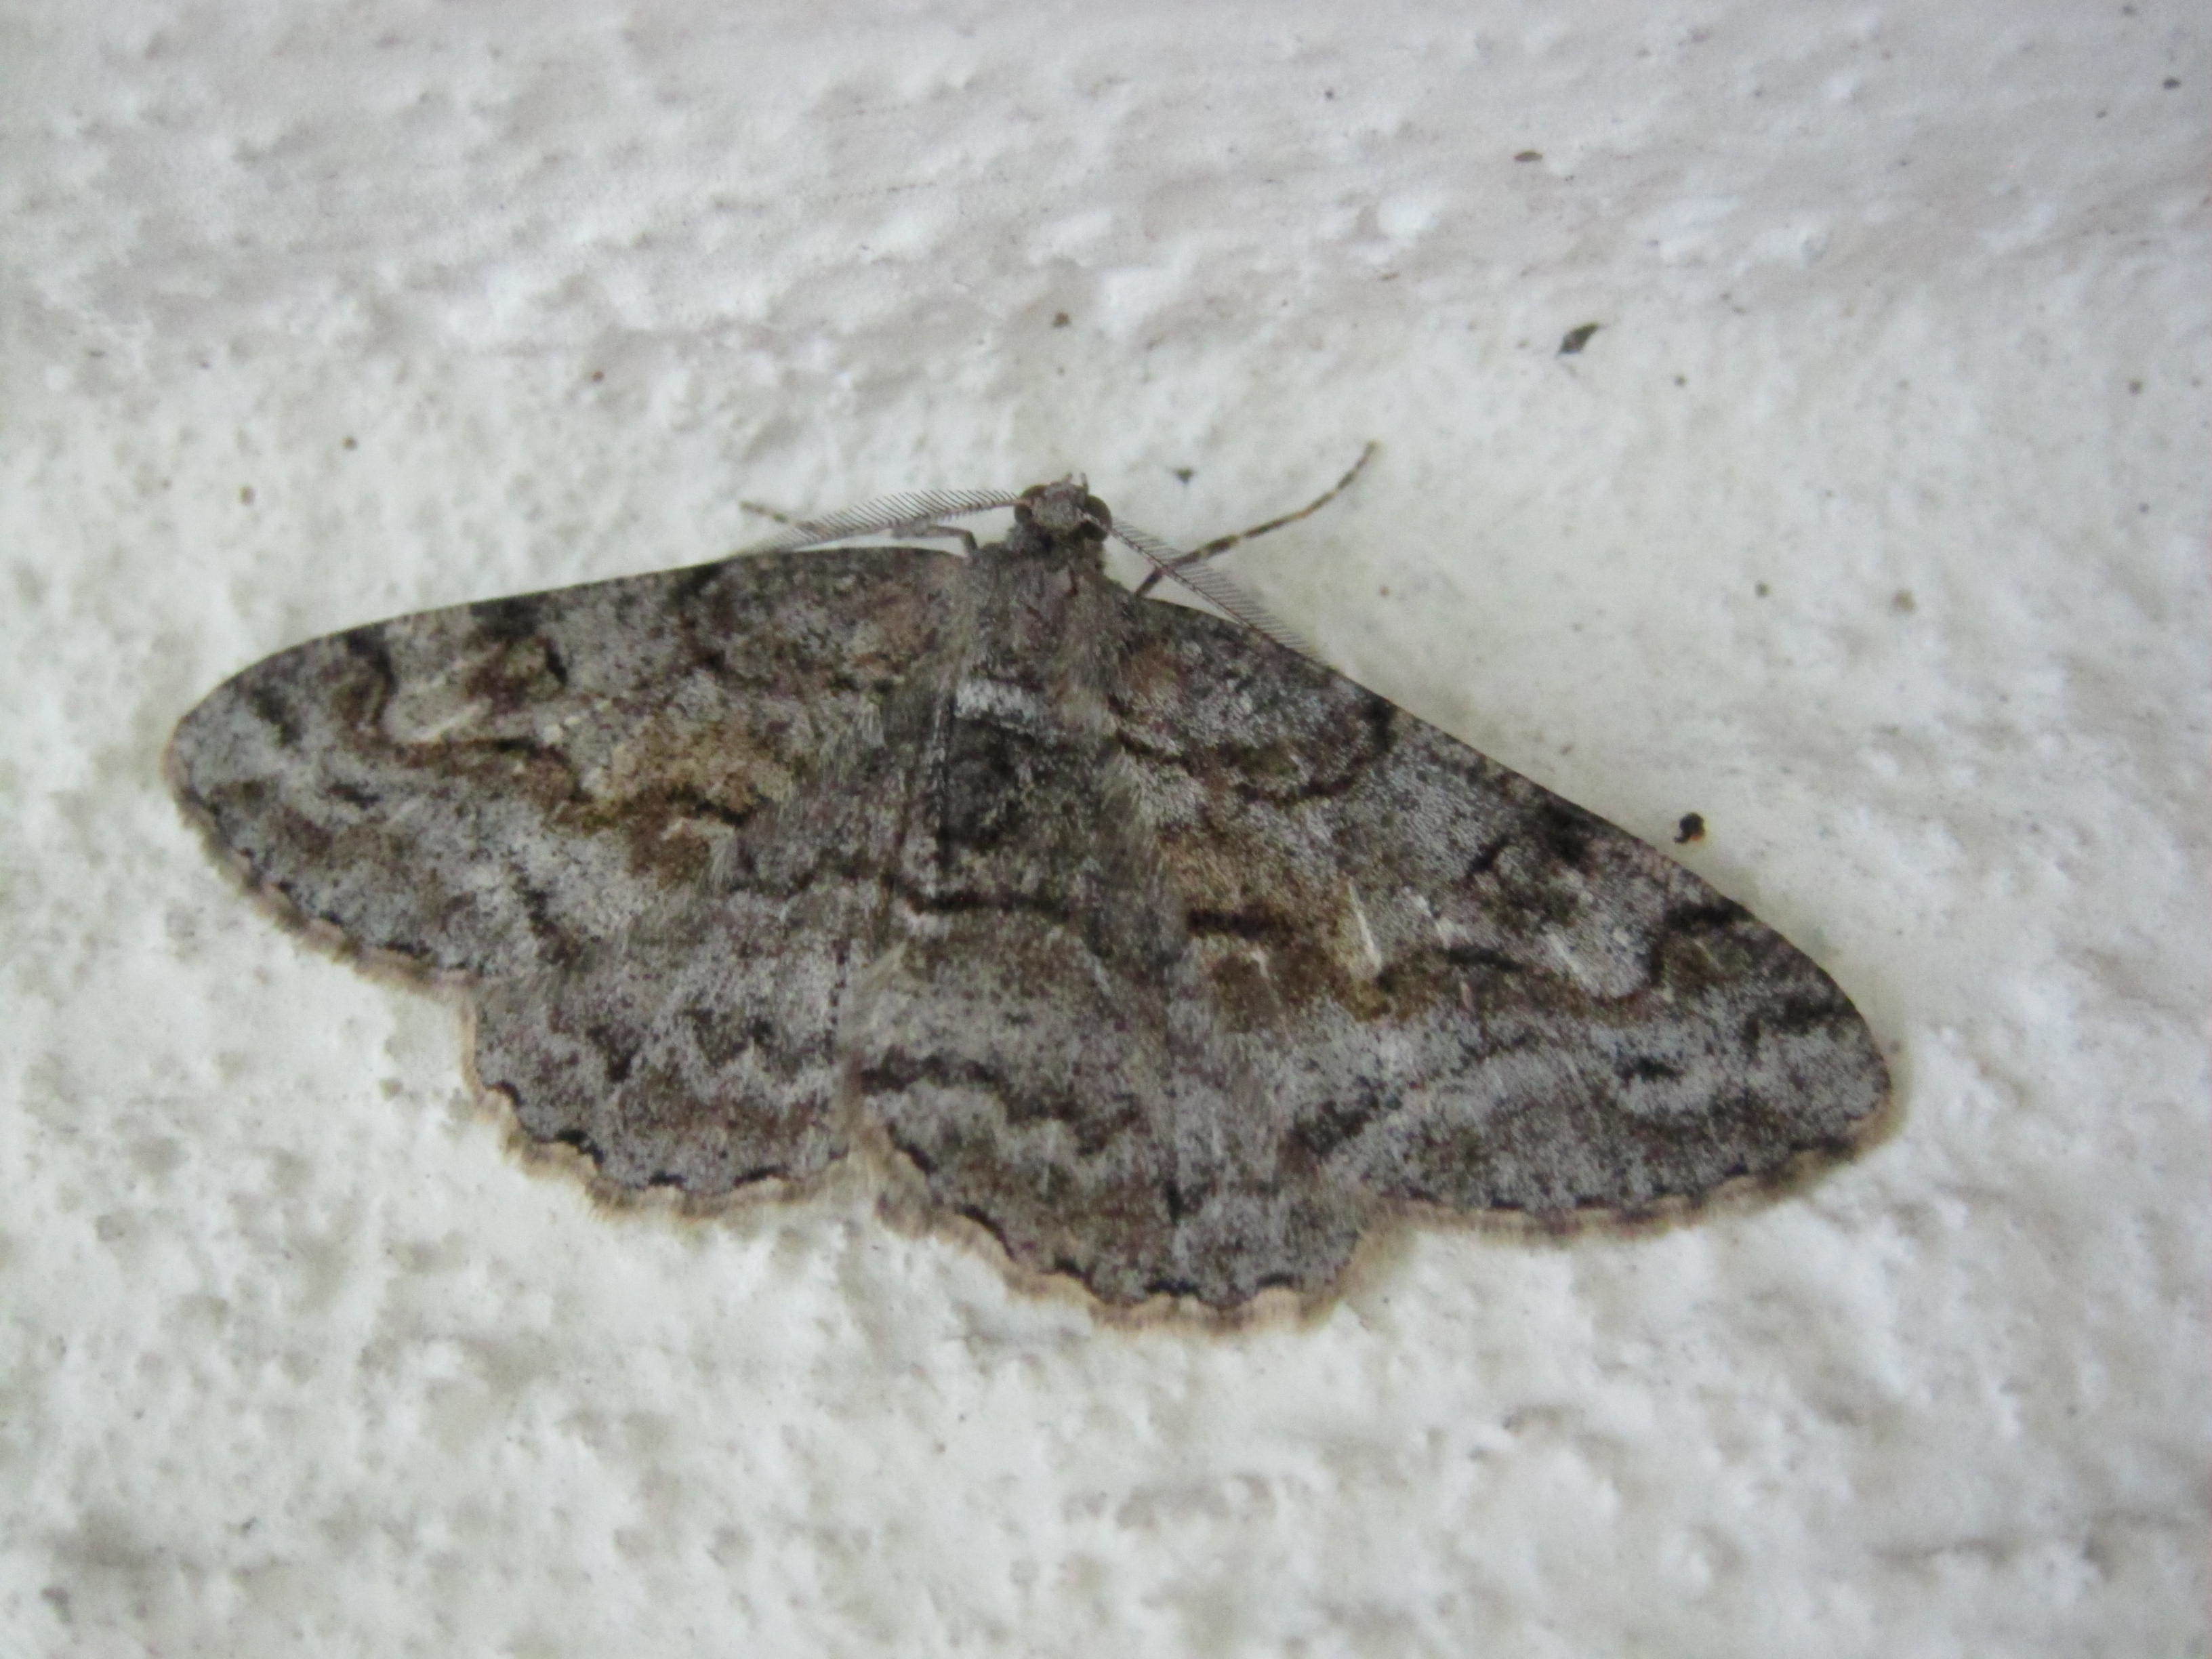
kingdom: Animalia
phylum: Arthropoda
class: Insecta
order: Lepidoptera
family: Geometridae
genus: Alcis
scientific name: Alcis repandata
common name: Mottled beauty
